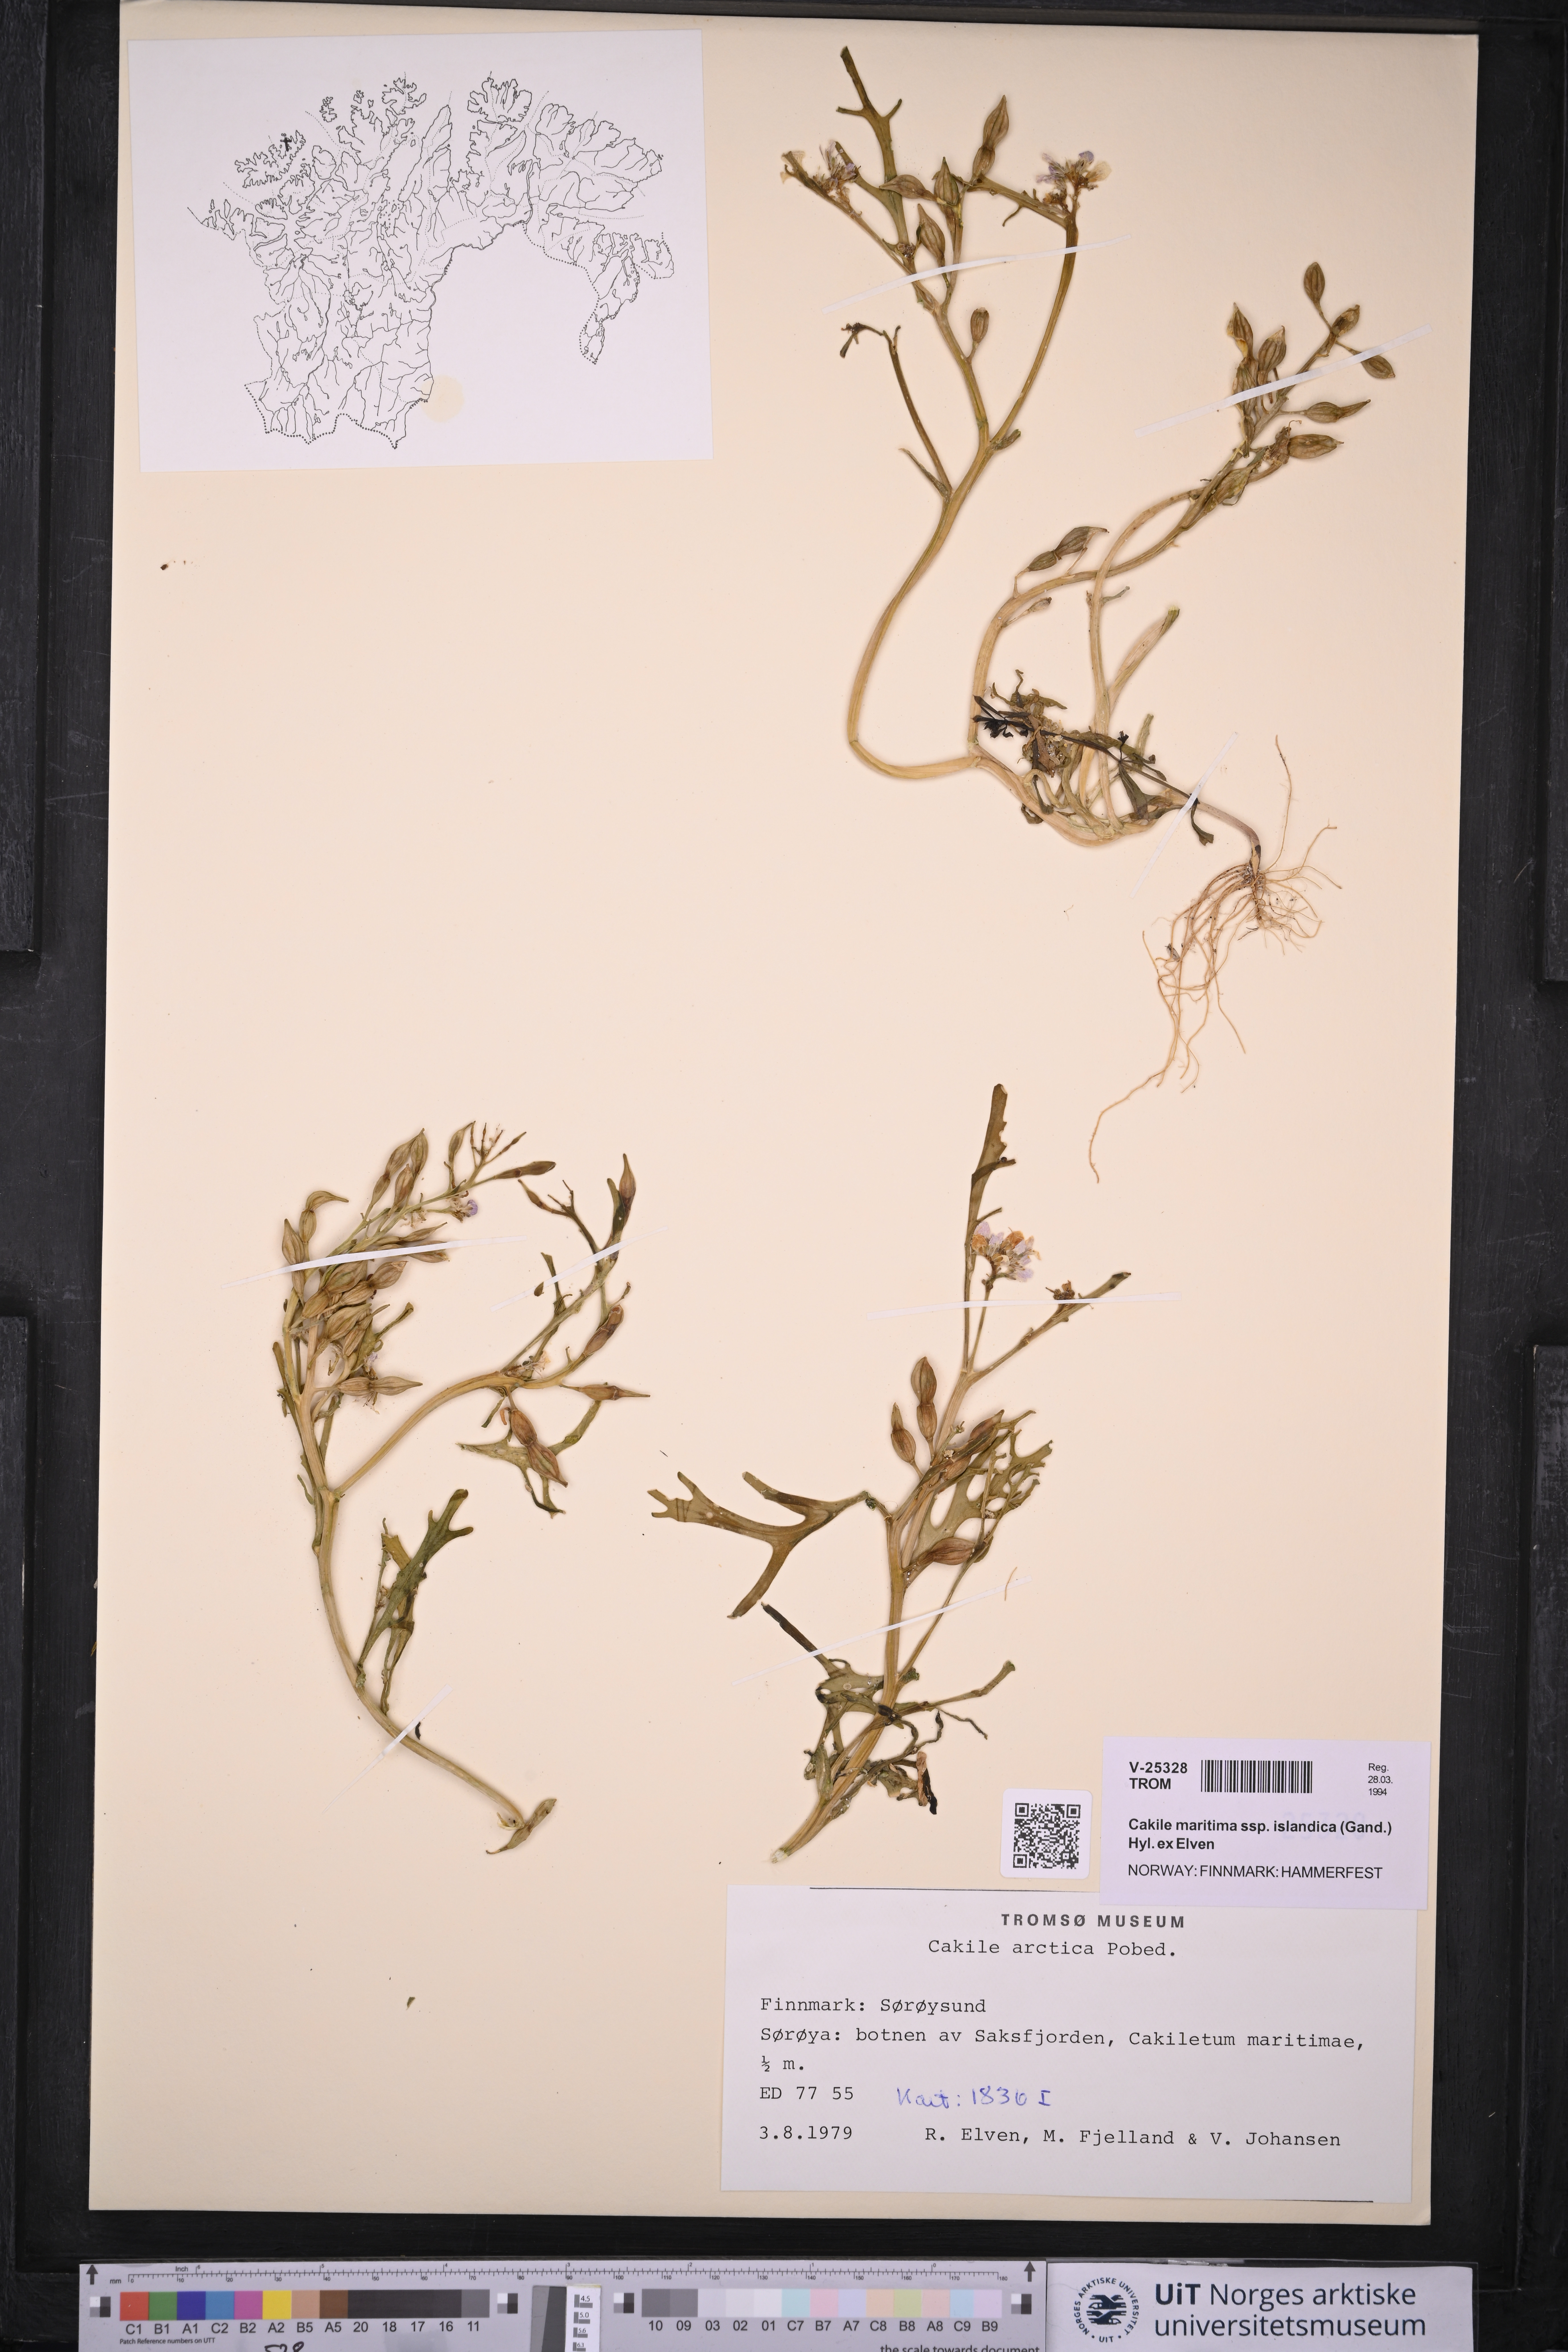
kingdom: Plantae
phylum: Tracheophyta
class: Magnoliopsida
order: Brassicales
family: Brassicaceae
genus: Cakile
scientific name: Cakile arctica
